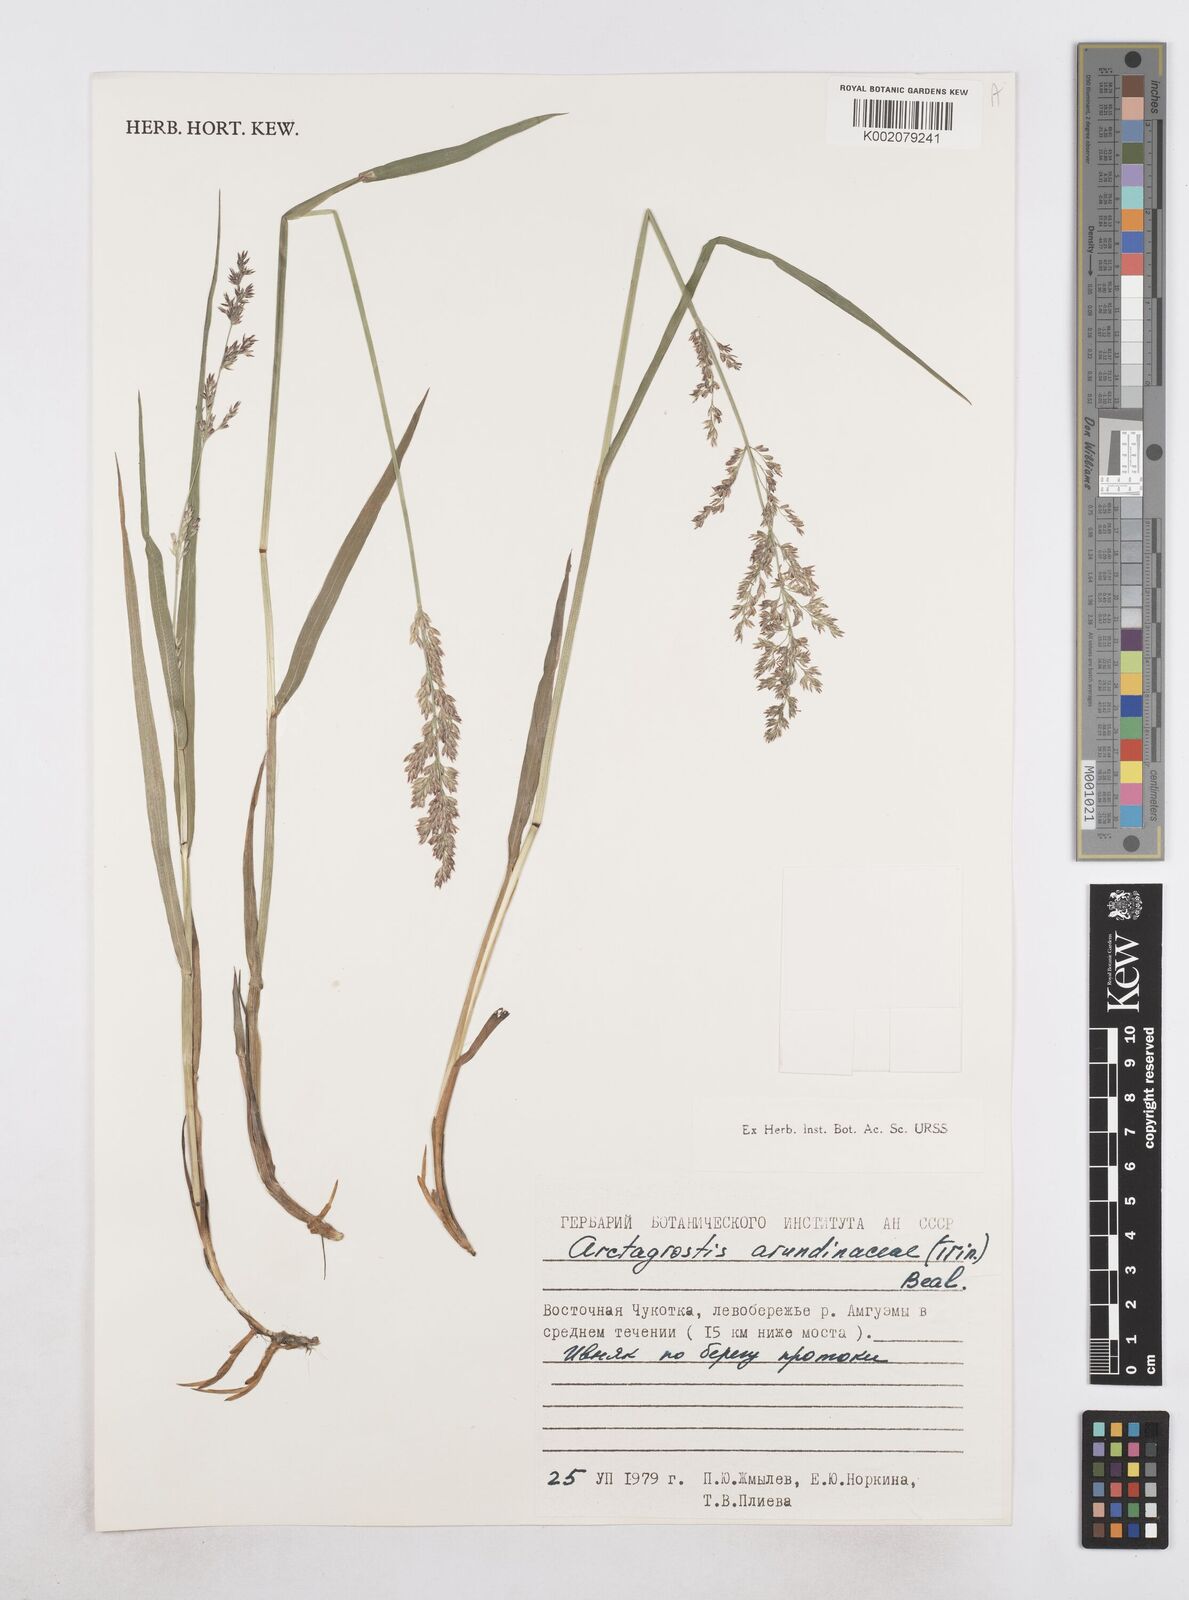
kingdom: Plantae
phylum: Tracheophyta
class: Liliopsida
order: Poales
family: Poaceae
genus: Arctagrostis
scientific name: Arctagrostis arundinacea
